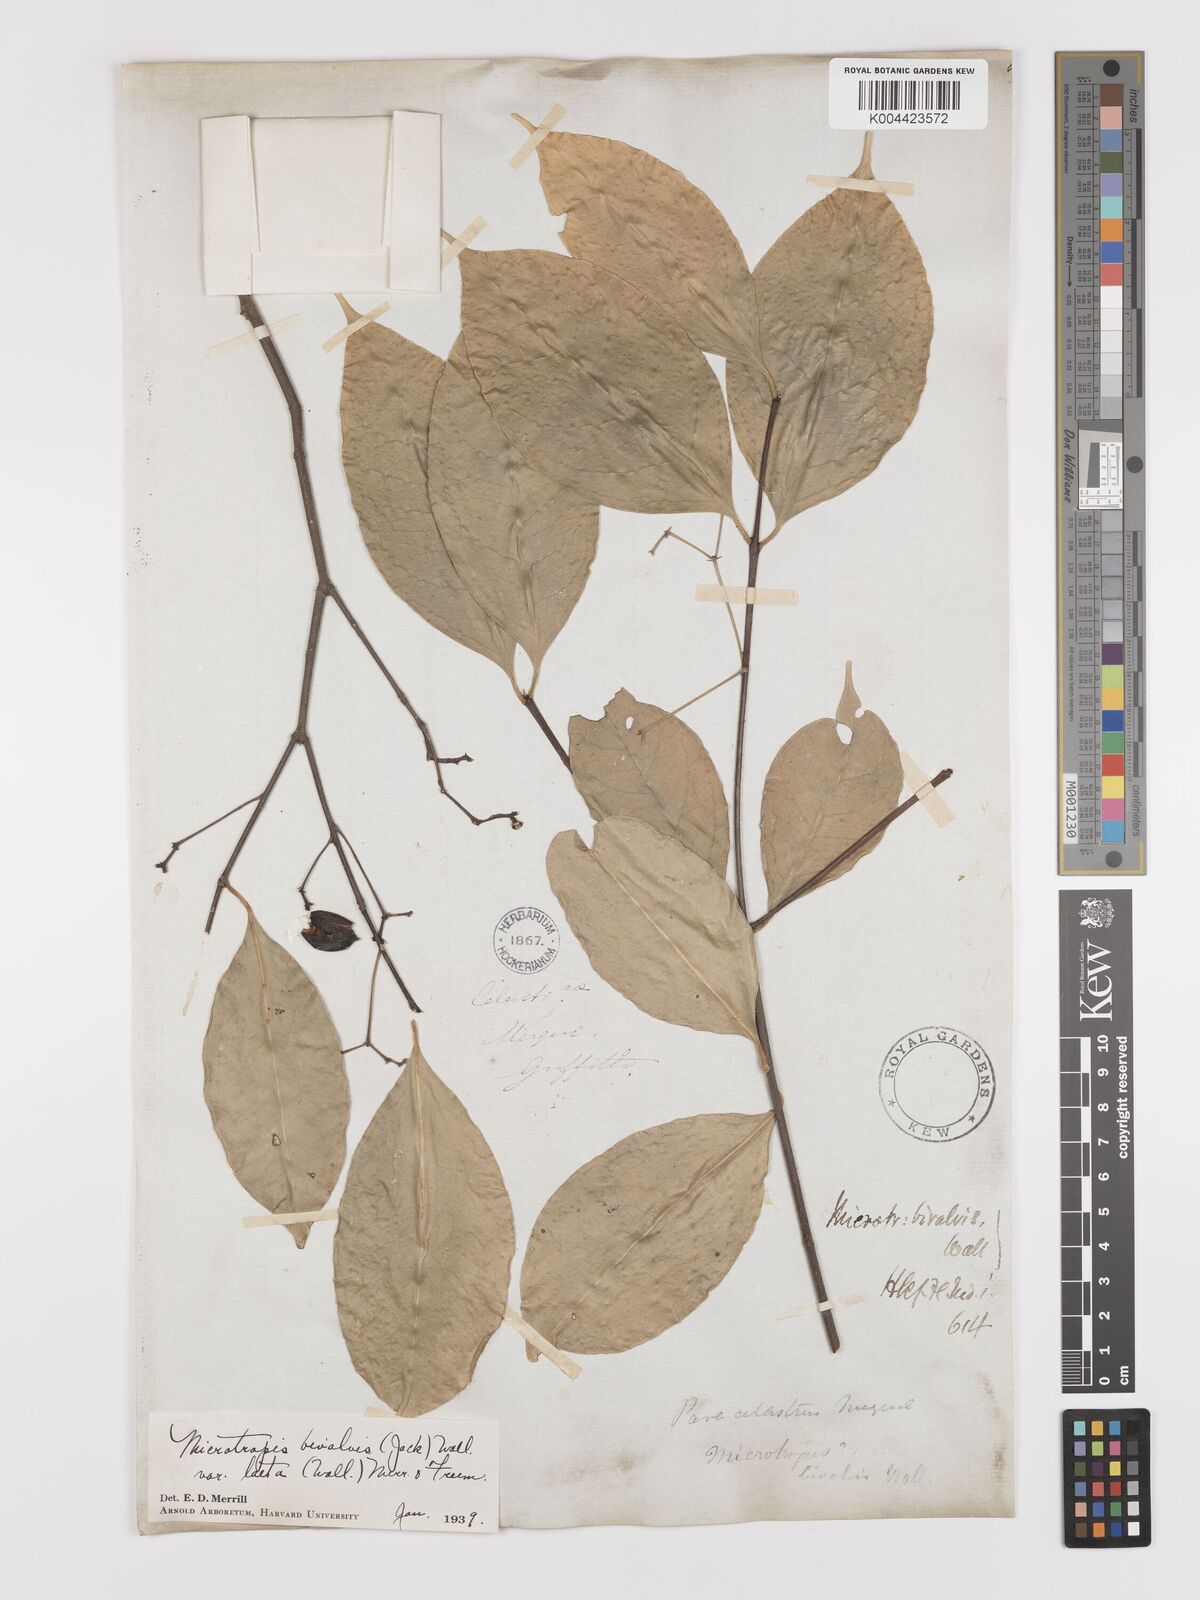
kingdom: Plantae
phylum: Tracheophyta
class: Magnoliopsida
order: Celastrales
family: Celastraceae
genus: Microtropis
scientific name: Microtropis bivalvis
